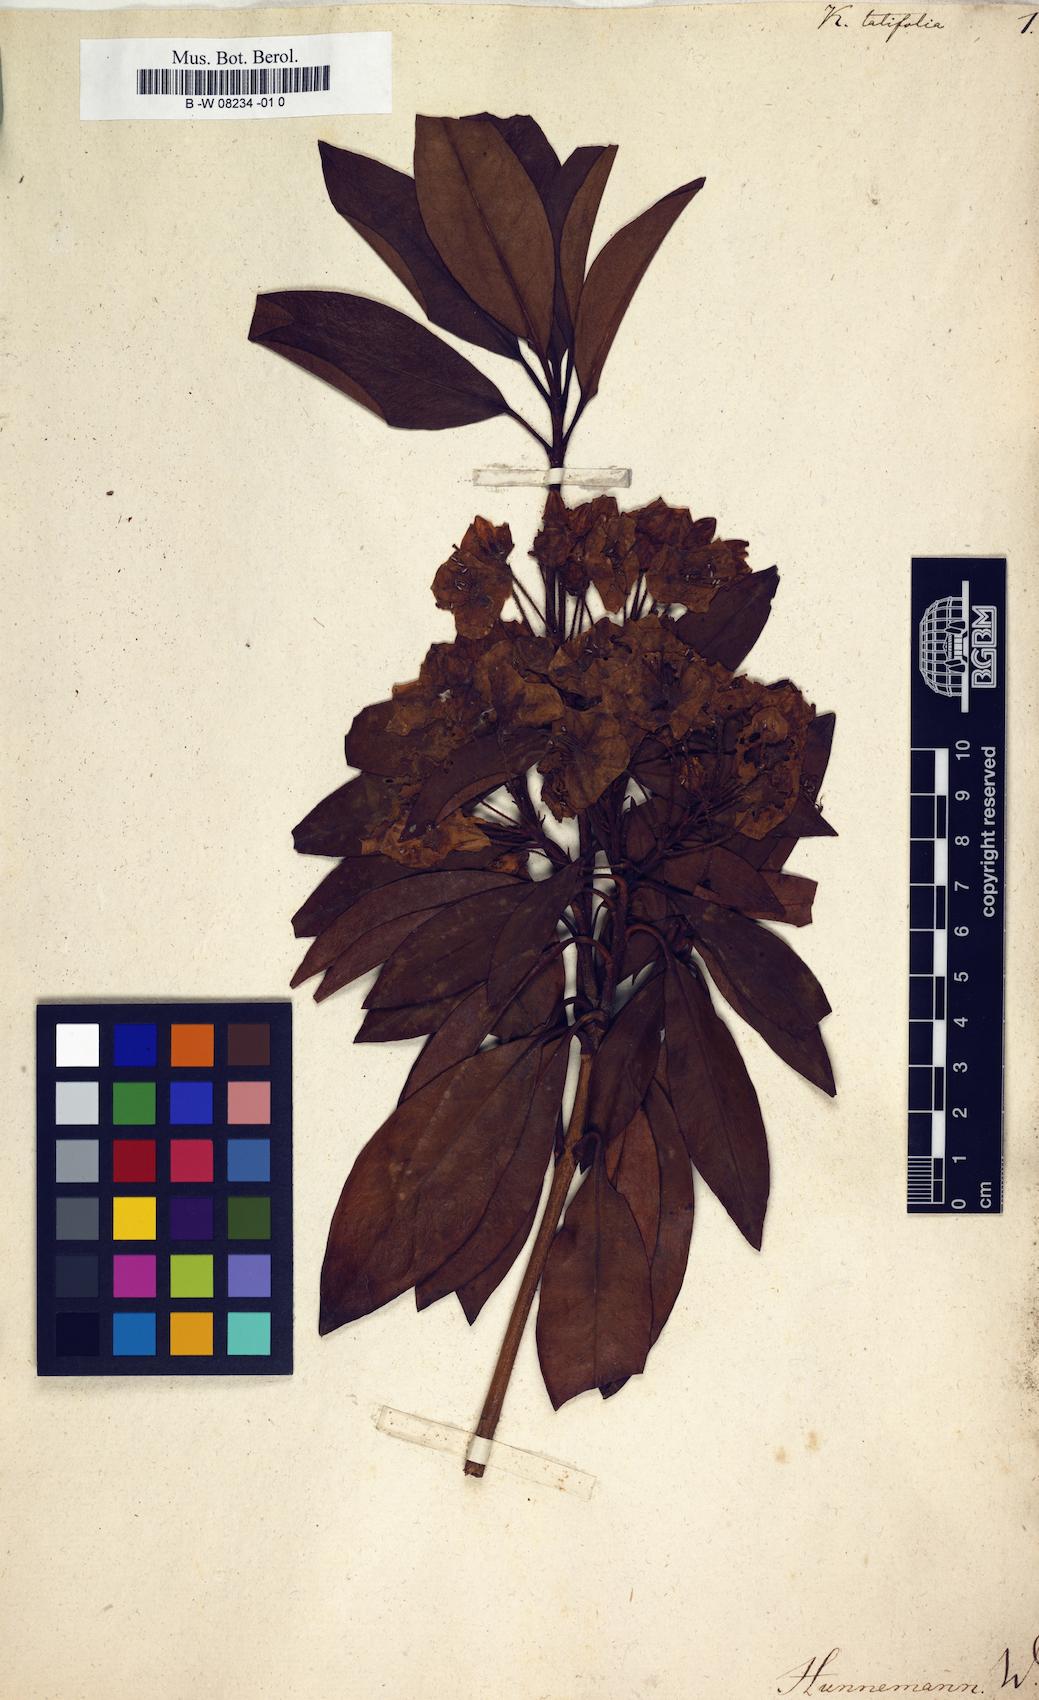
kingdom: Plantae
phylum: Tracheophyta
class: Magnoliopsida
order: Ericales
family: Ericaceae
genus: Kalmia
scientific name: Kalmia latifolia
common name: Mountain-laurel
